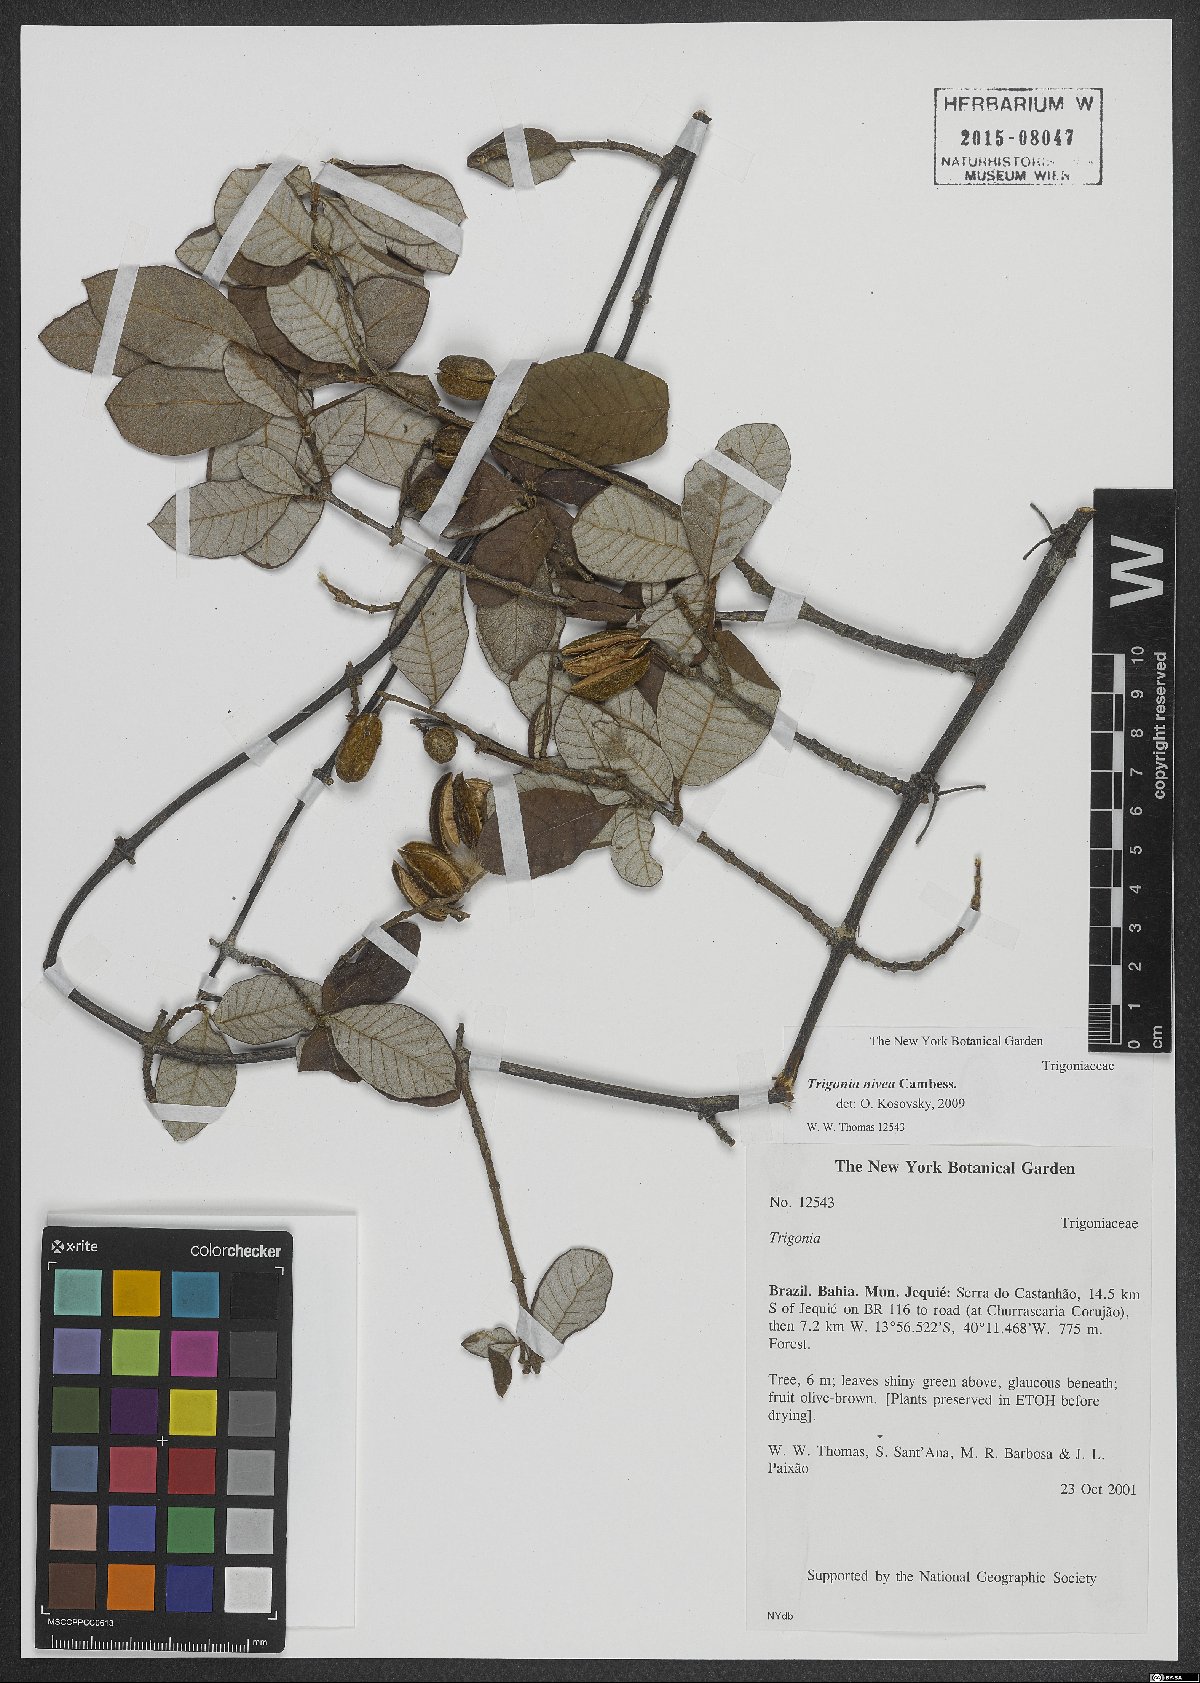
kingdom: Plantae
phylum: Tracheophyta
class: Magnoliopsida
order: Malpighiales
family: Trigoniaceae
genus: Trigonia
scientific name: Trigonia nivea
